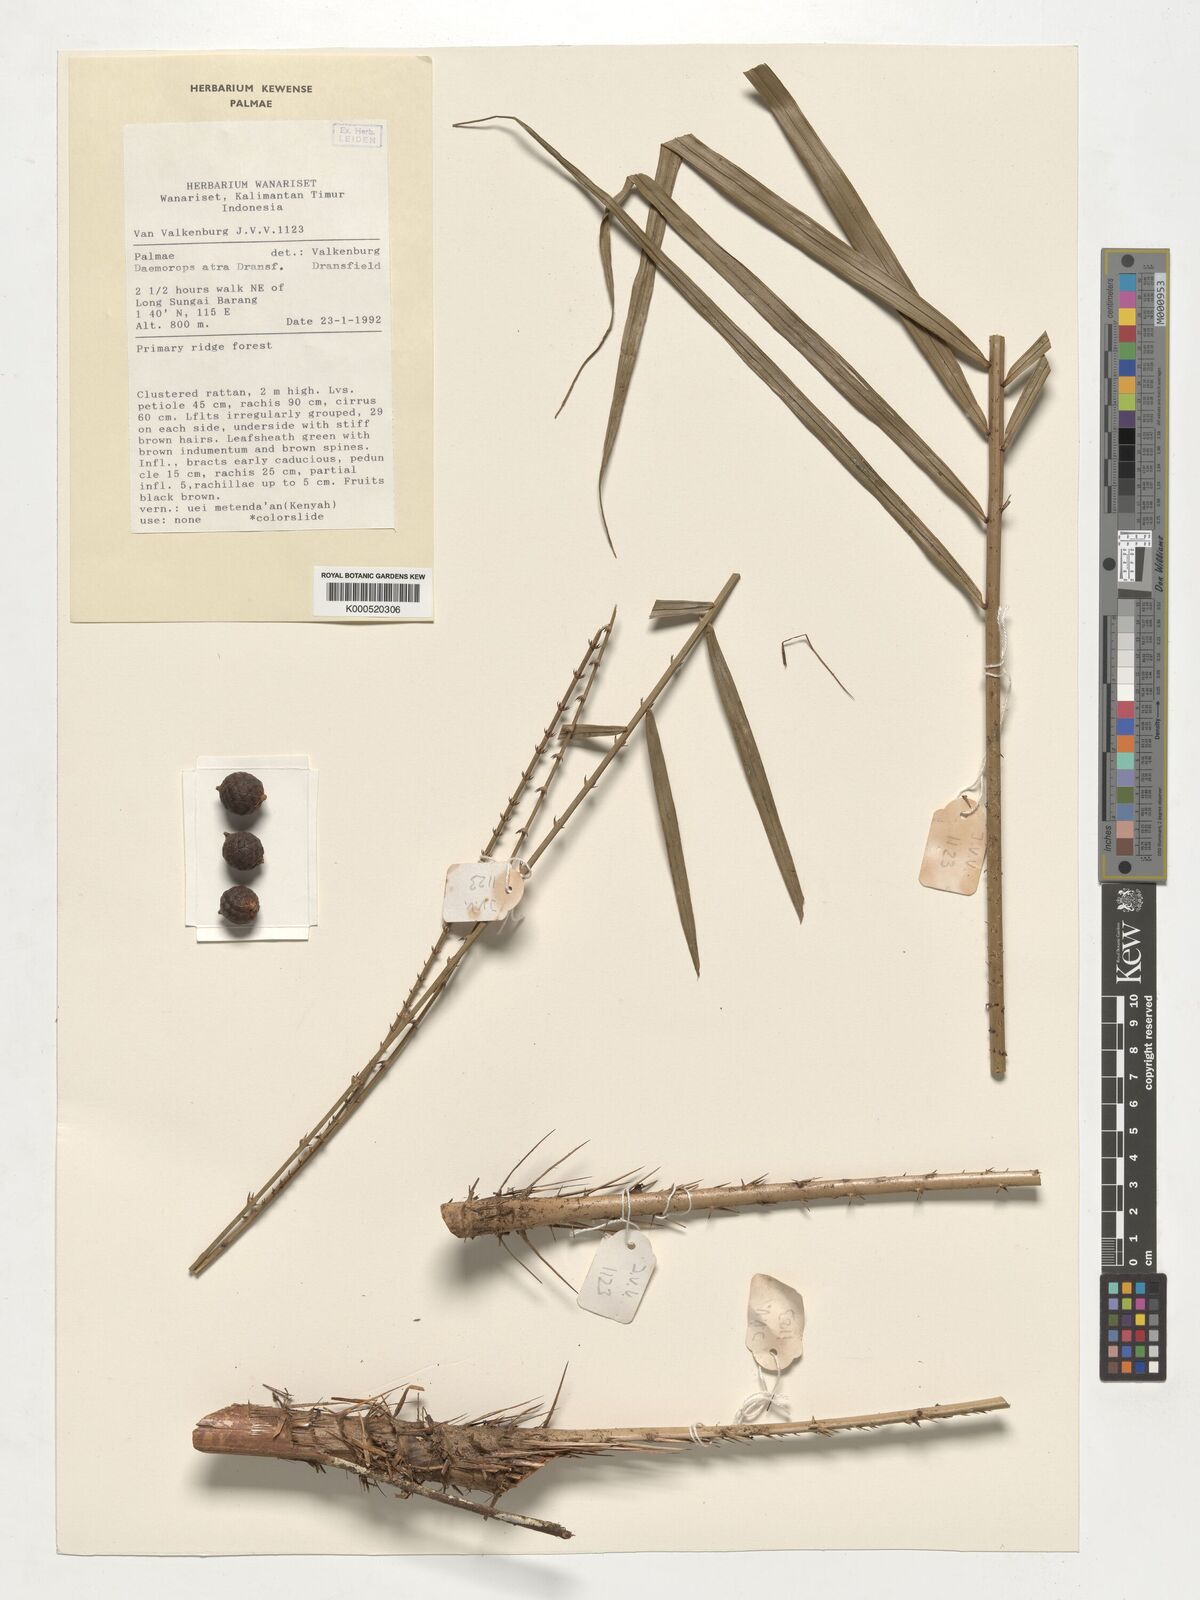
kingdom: Plantae
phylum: Tracheophyta
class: Liliopsida
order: Arecales
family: Arecaceae
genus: Calamus
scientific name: Calamus ater
